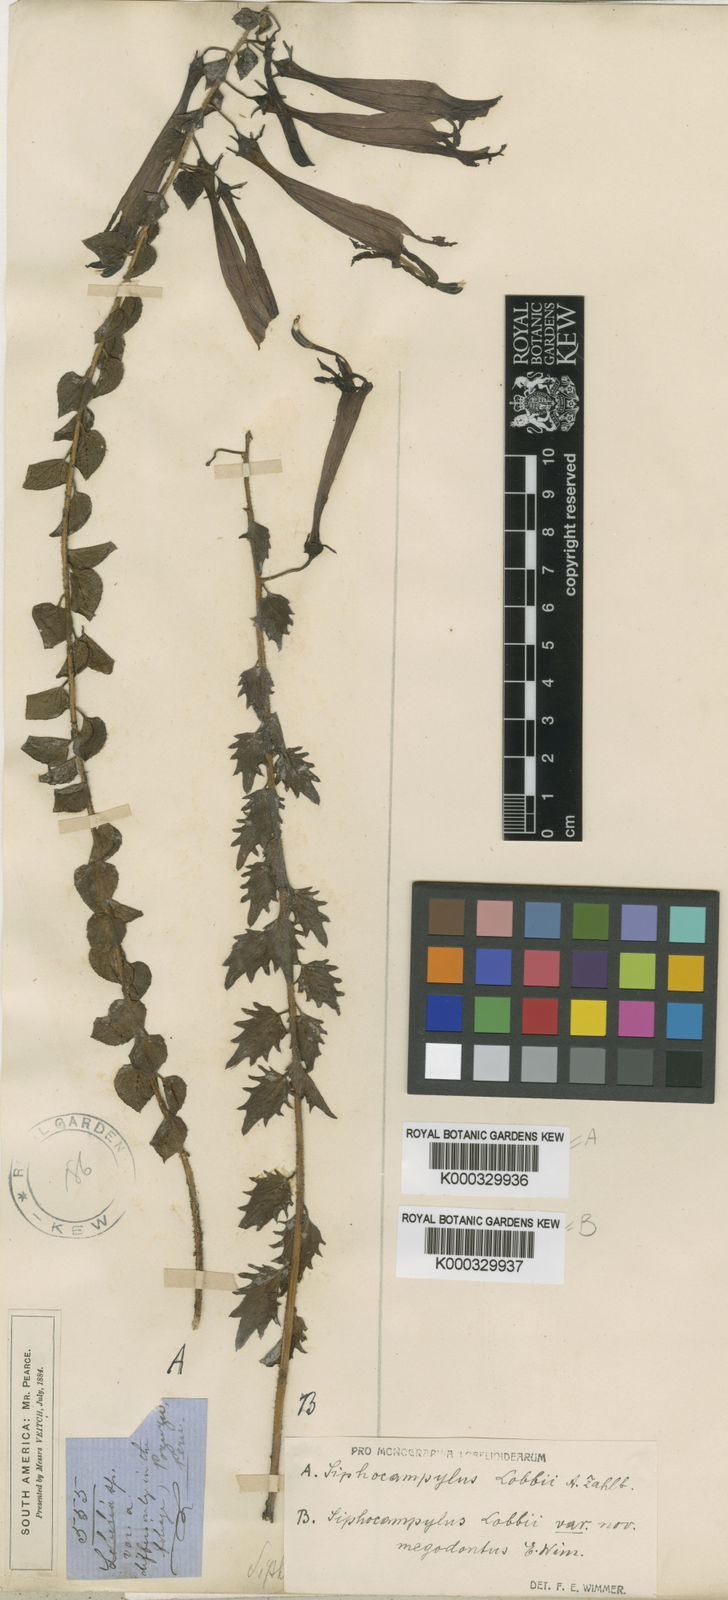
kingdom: Plantae
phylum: Tracheophyta
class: Magnoliopsida
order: Asterales
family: Campanulaceae
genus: Siphocampylus
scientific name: Siphocampylus lobbii
